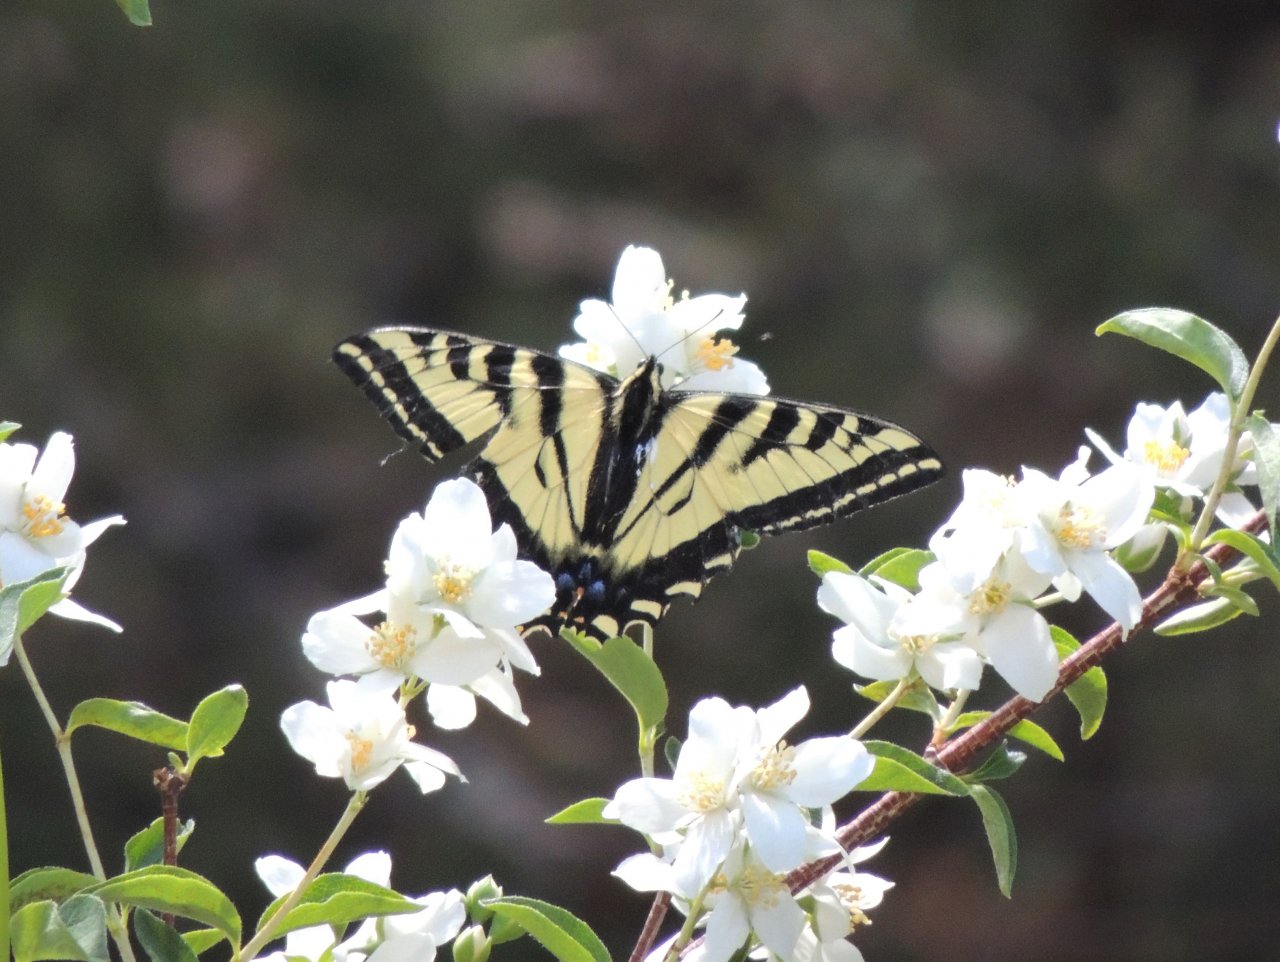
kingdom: Animalia
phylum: Arthropoda
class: Insecta
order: Lepidoptera
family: Papilionidae
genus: Pterourus
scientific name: Pterourus rutulus
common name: Western Tiger Swallowtail
